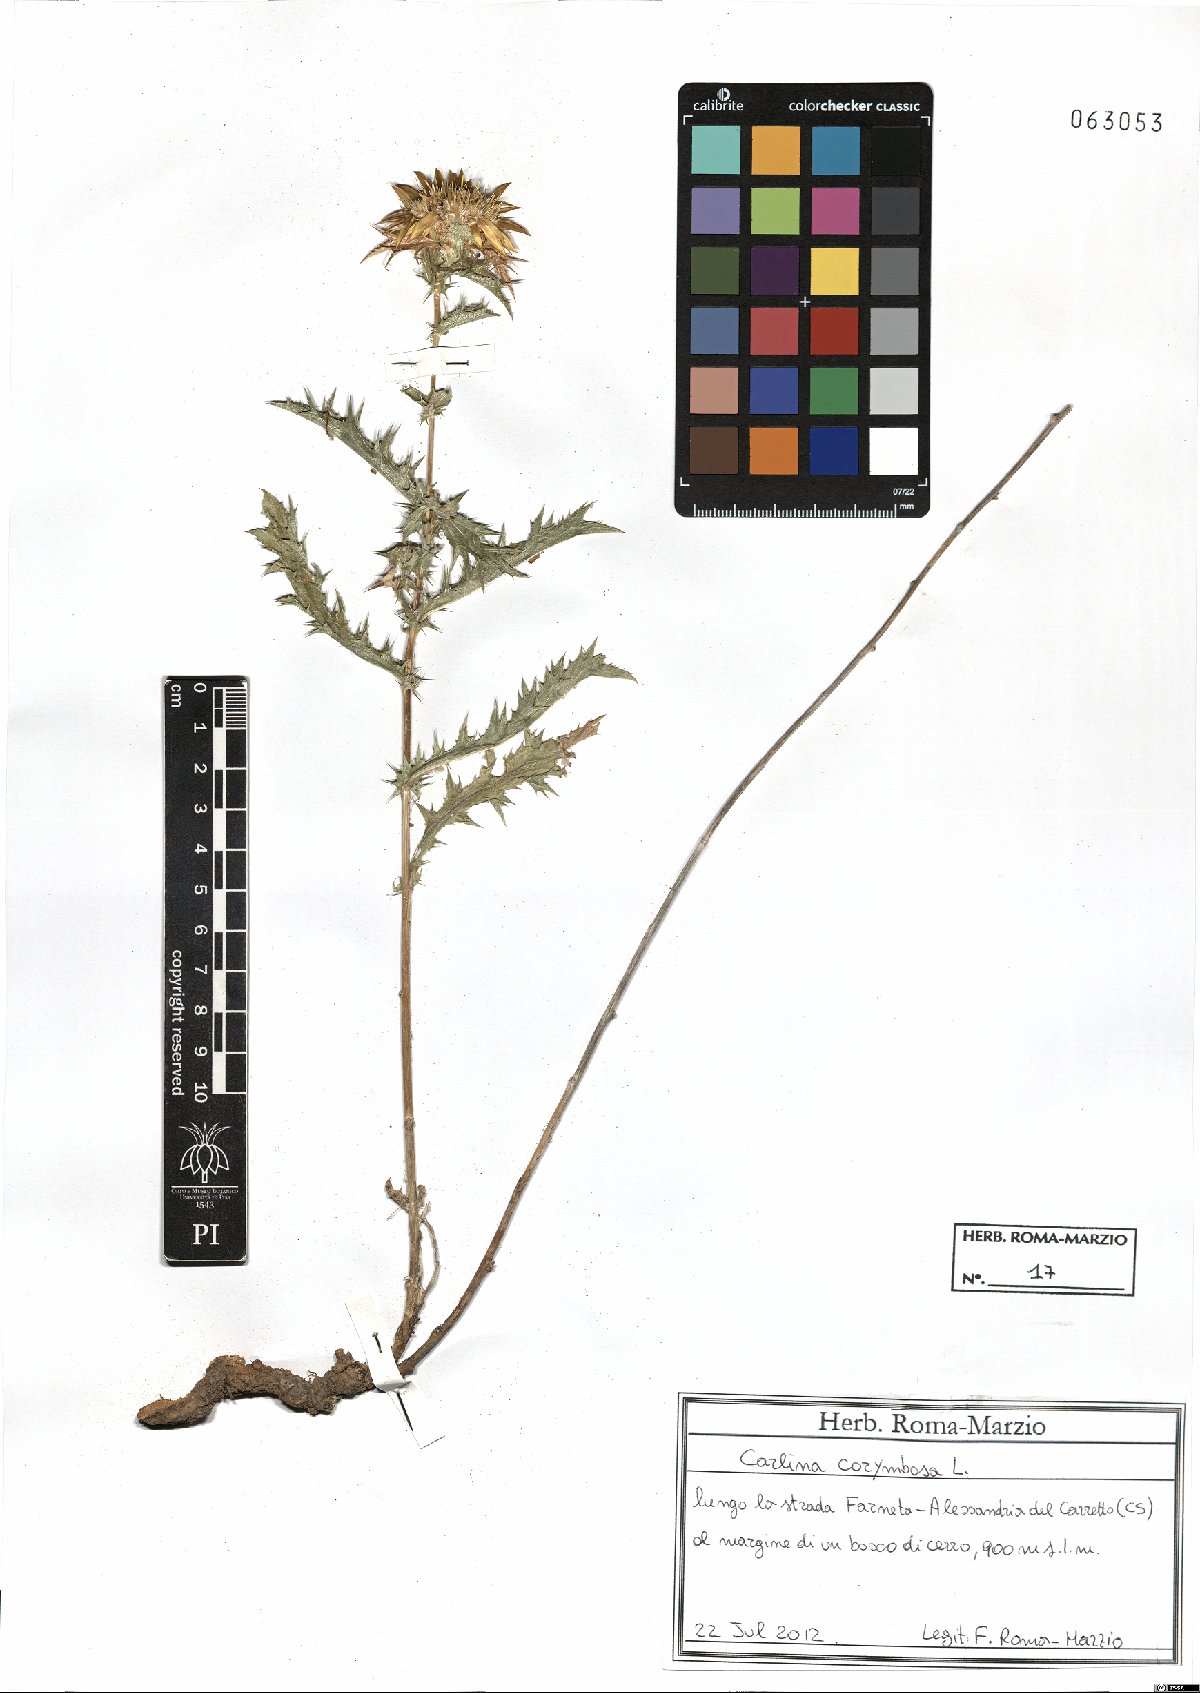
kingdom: Plantae
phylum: Tracheophyta
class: Magnoliopsida
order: Asterales
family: Asteraceae
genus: Carlina
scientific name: Carlina corymbosa
